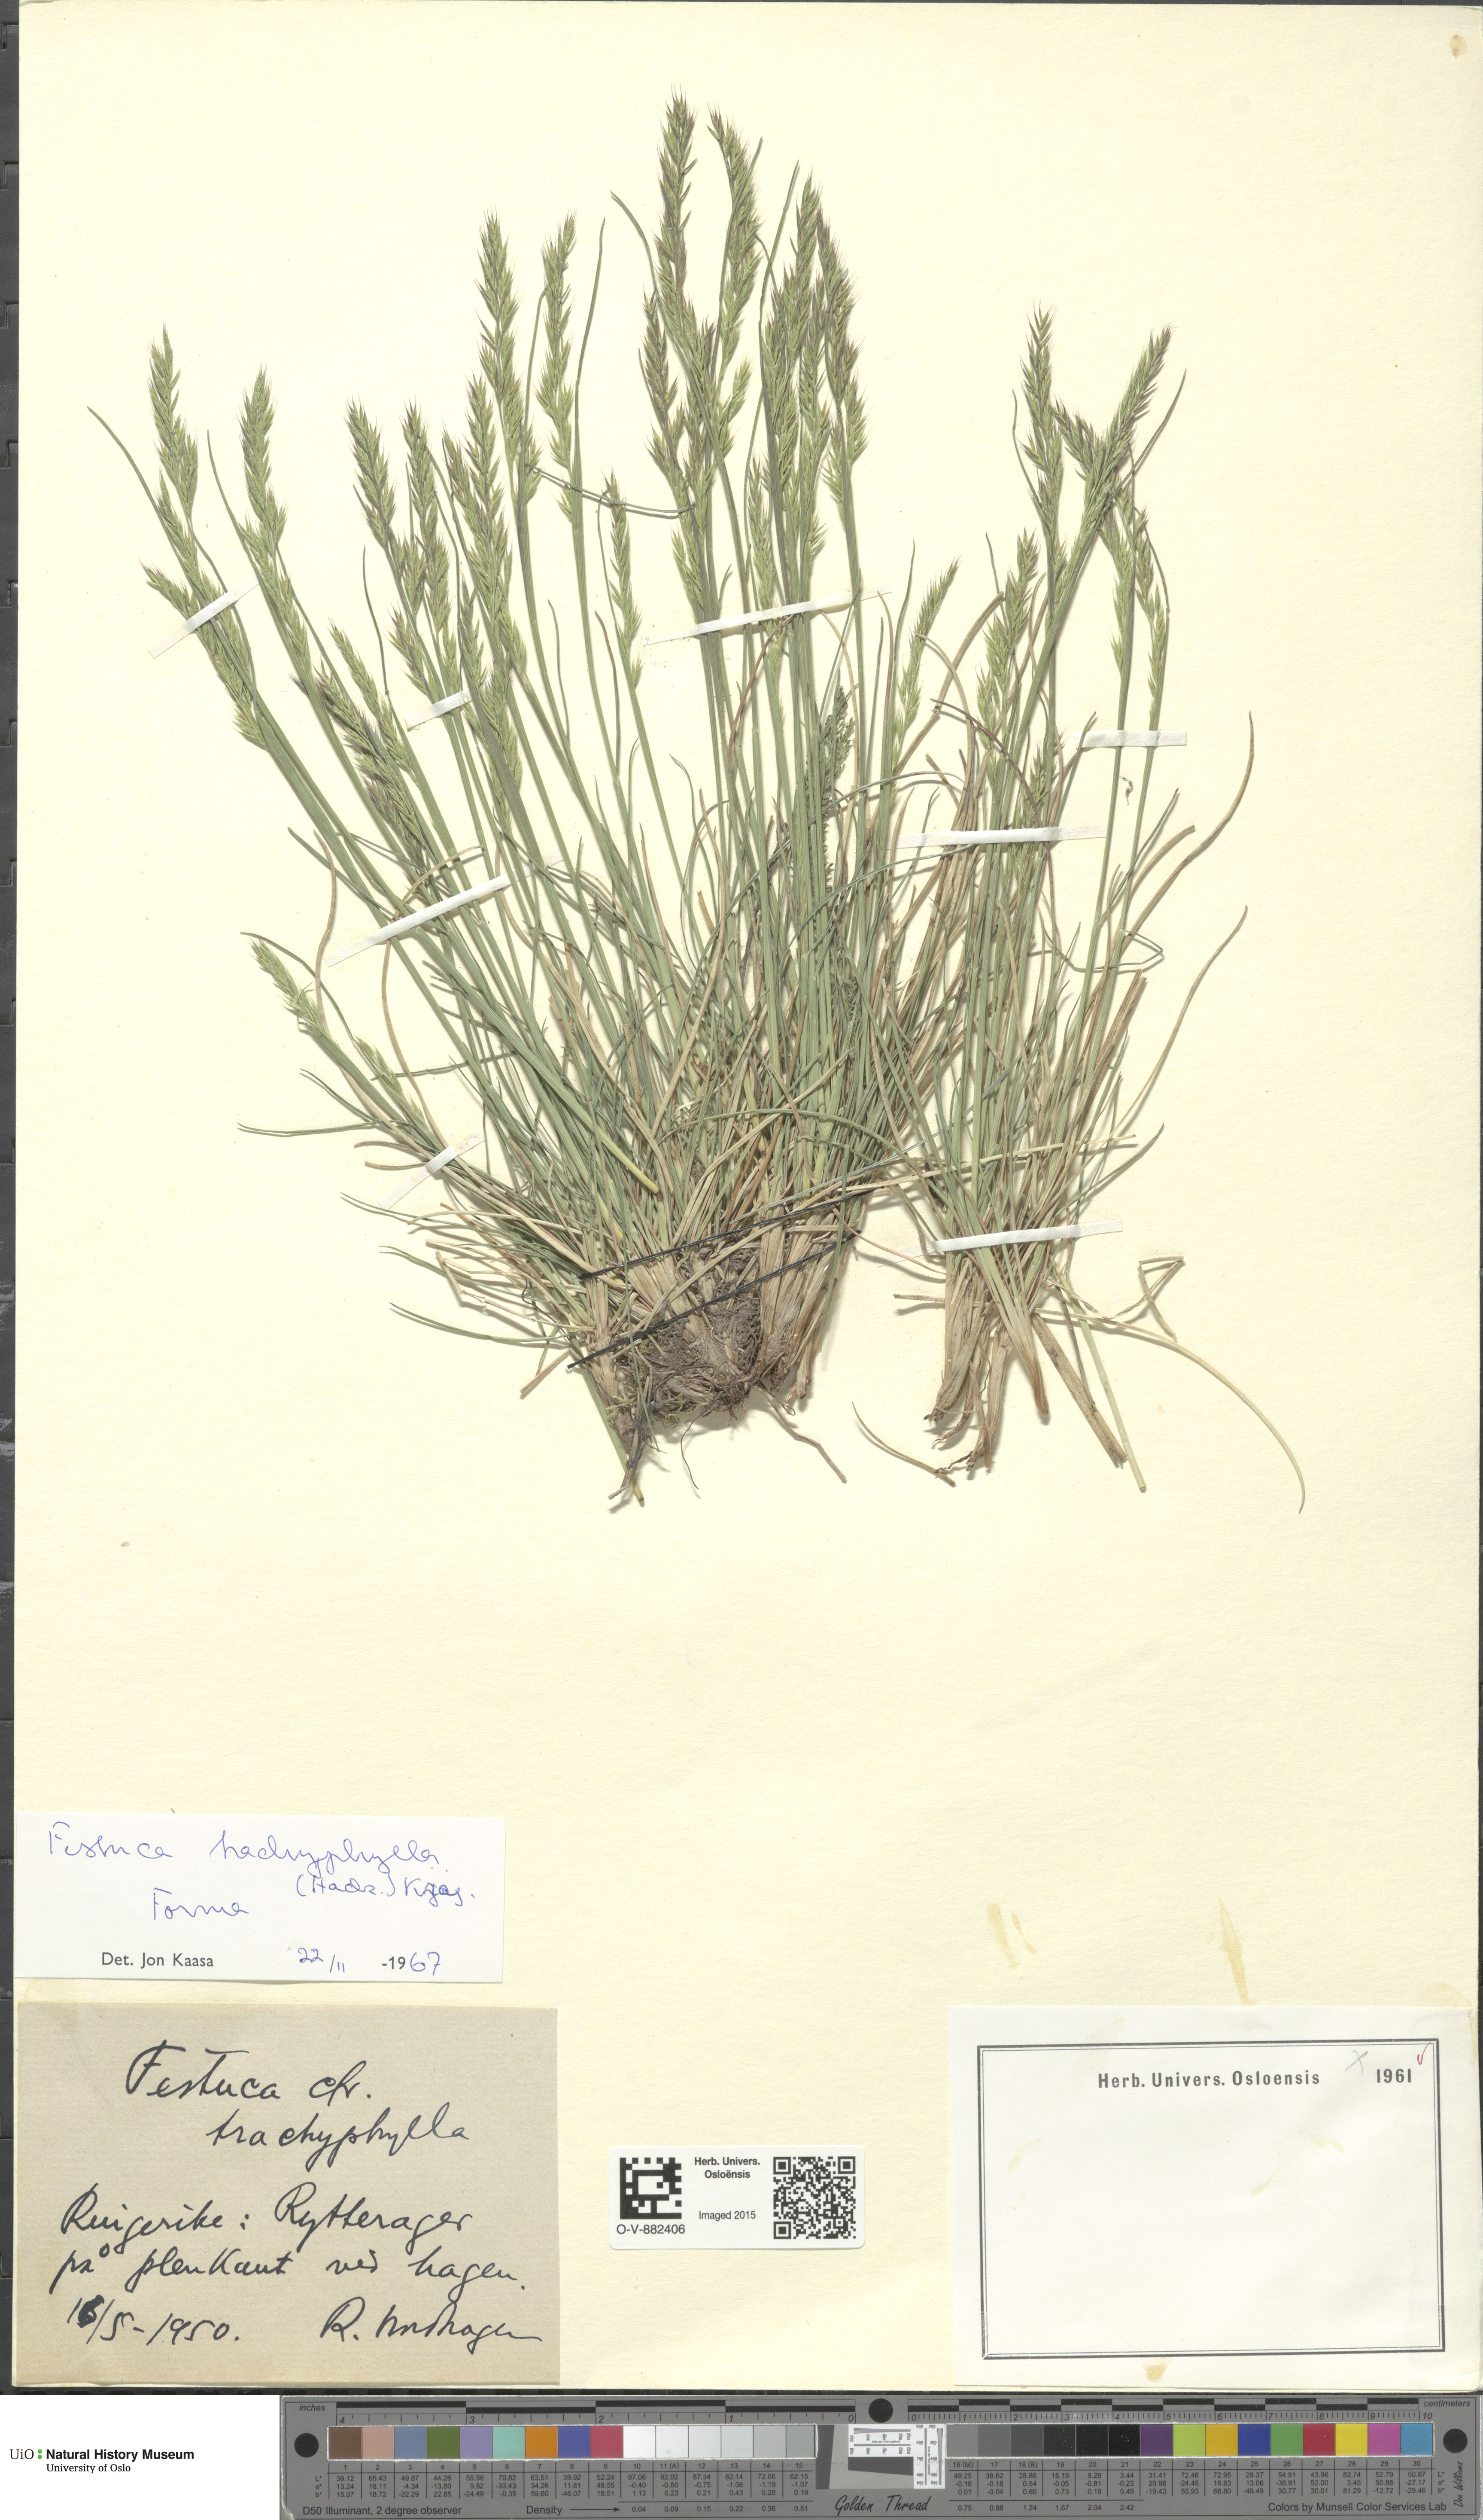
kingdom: Plantae
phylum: Tracheophyta
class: Liliopsida
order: Poales
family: Poaceae
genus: Festuca
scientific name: Festuca trachyphylla
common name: Hard fescue
